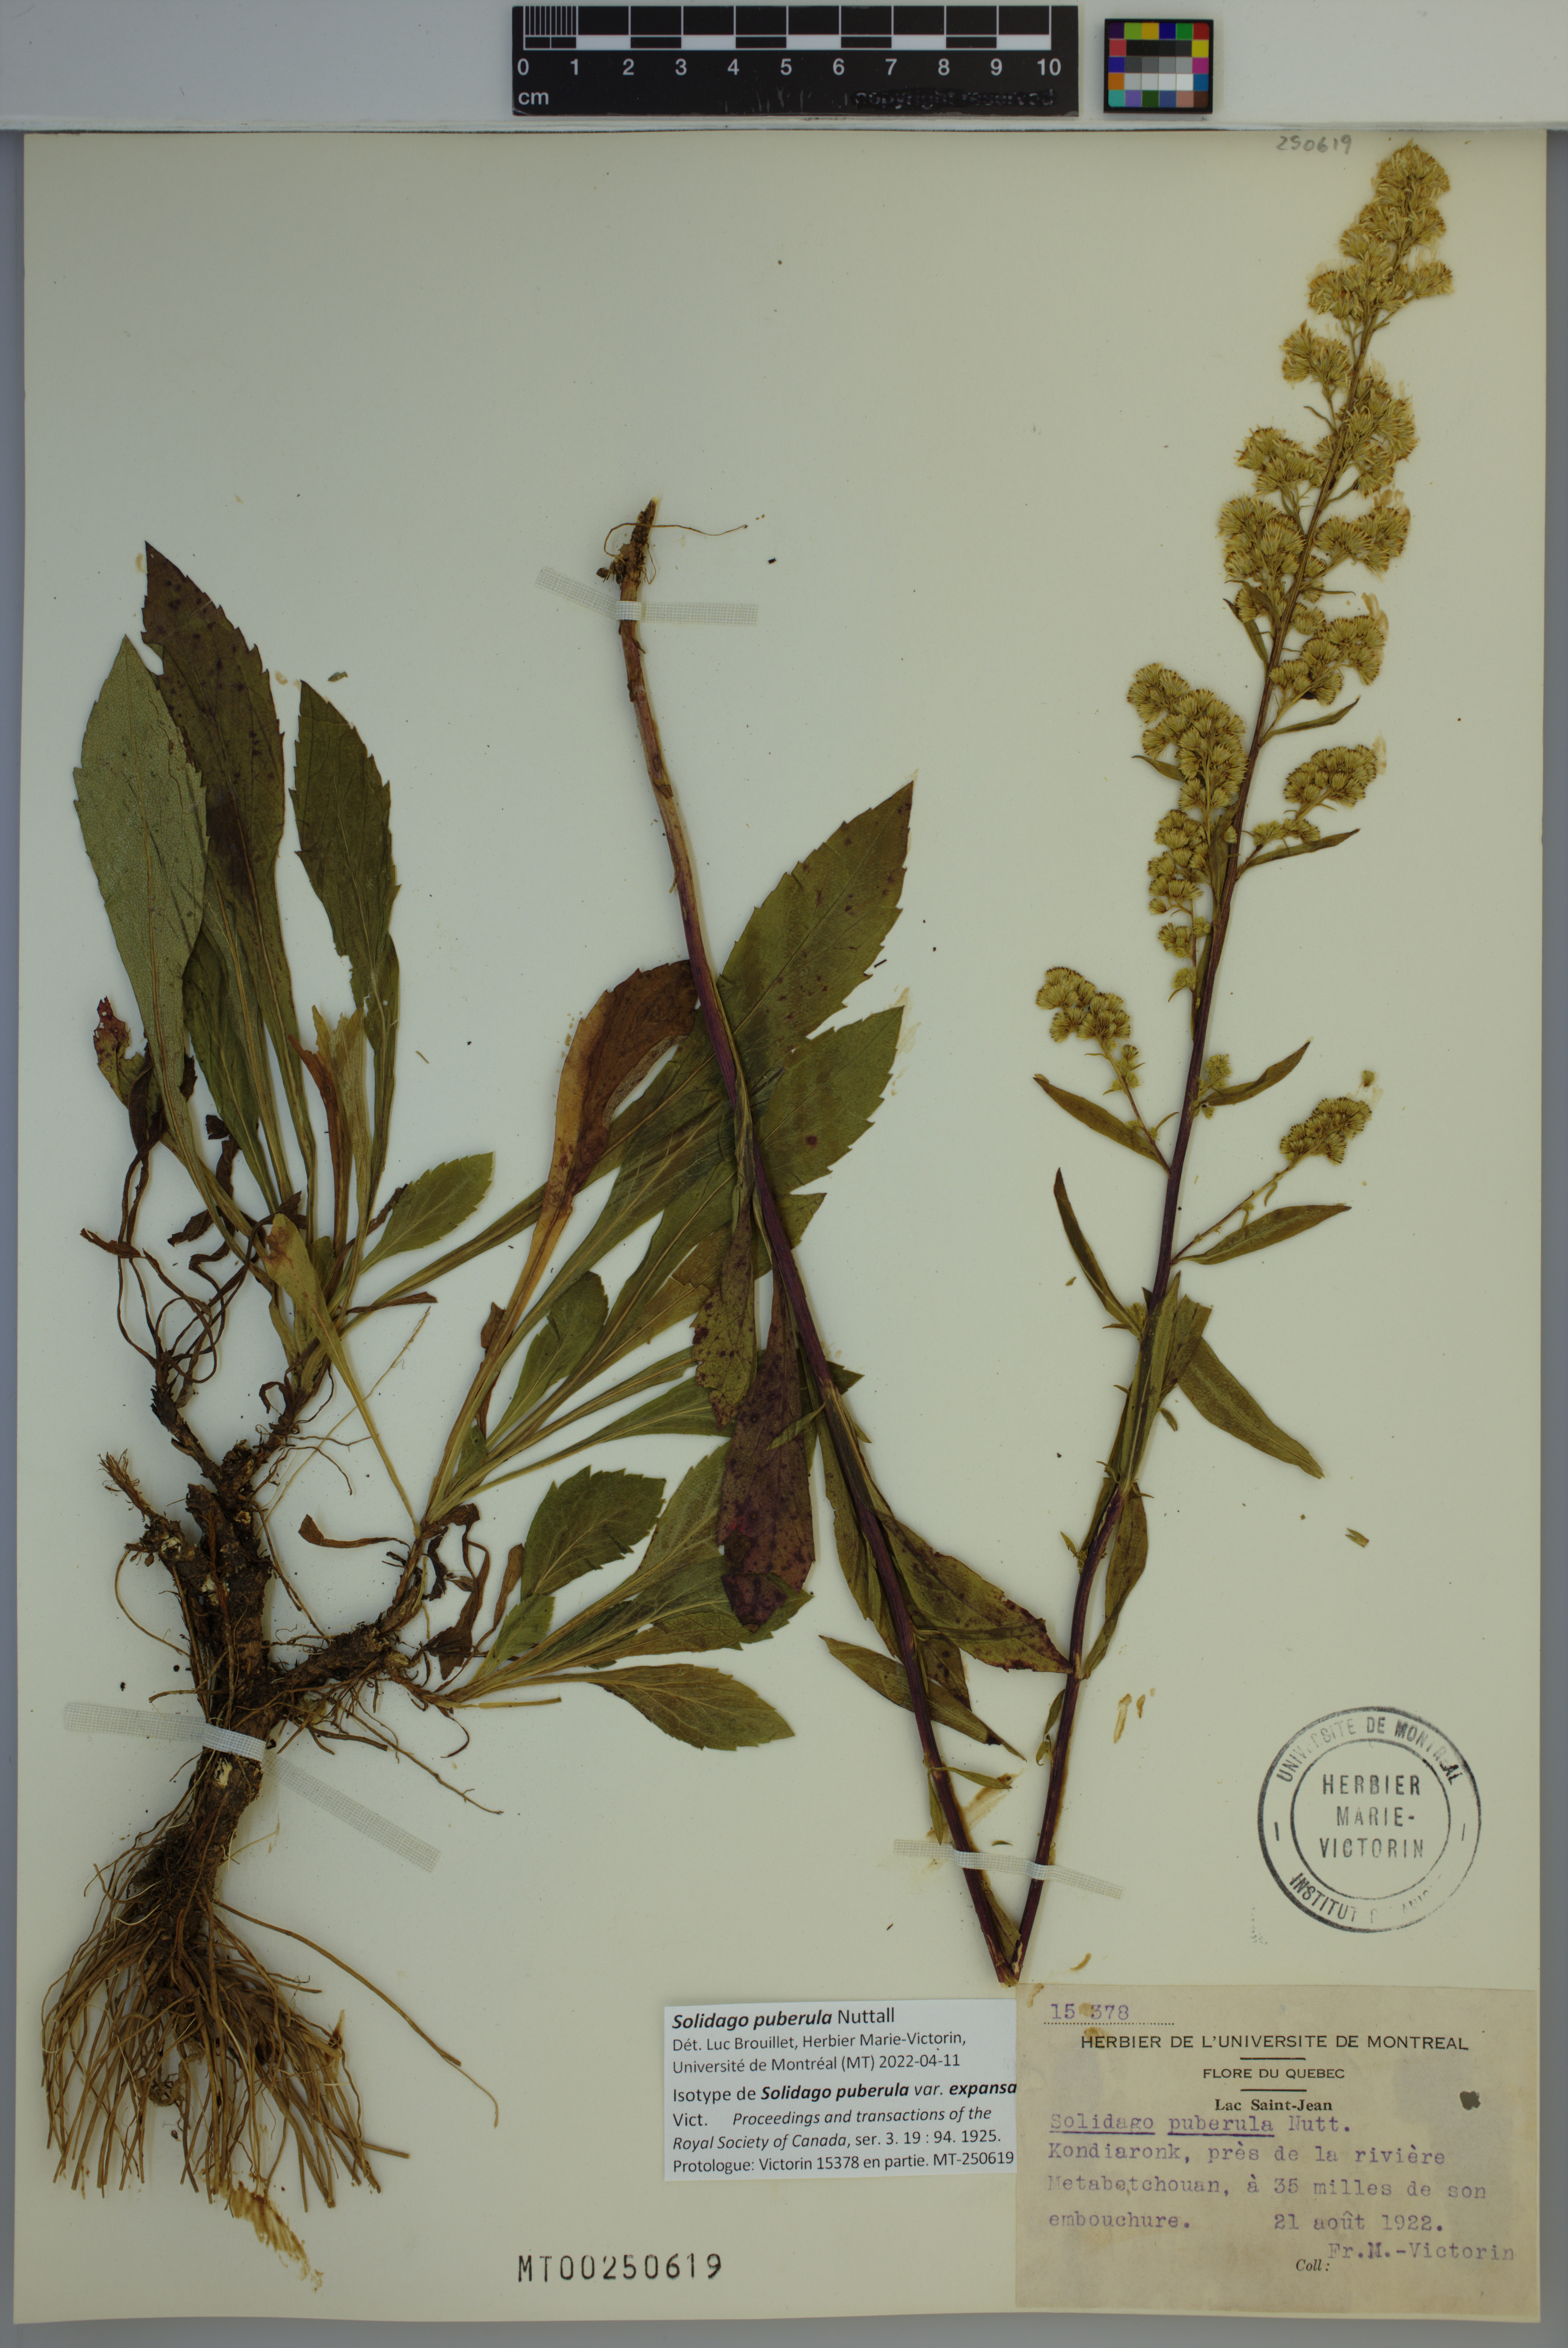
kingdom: Plantae
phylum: Tracheophyta
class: Magnoliopsida
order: Asterales
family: Asteraceae
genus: Solidago
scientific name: Solidago puberula
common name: Downy goldenrod
